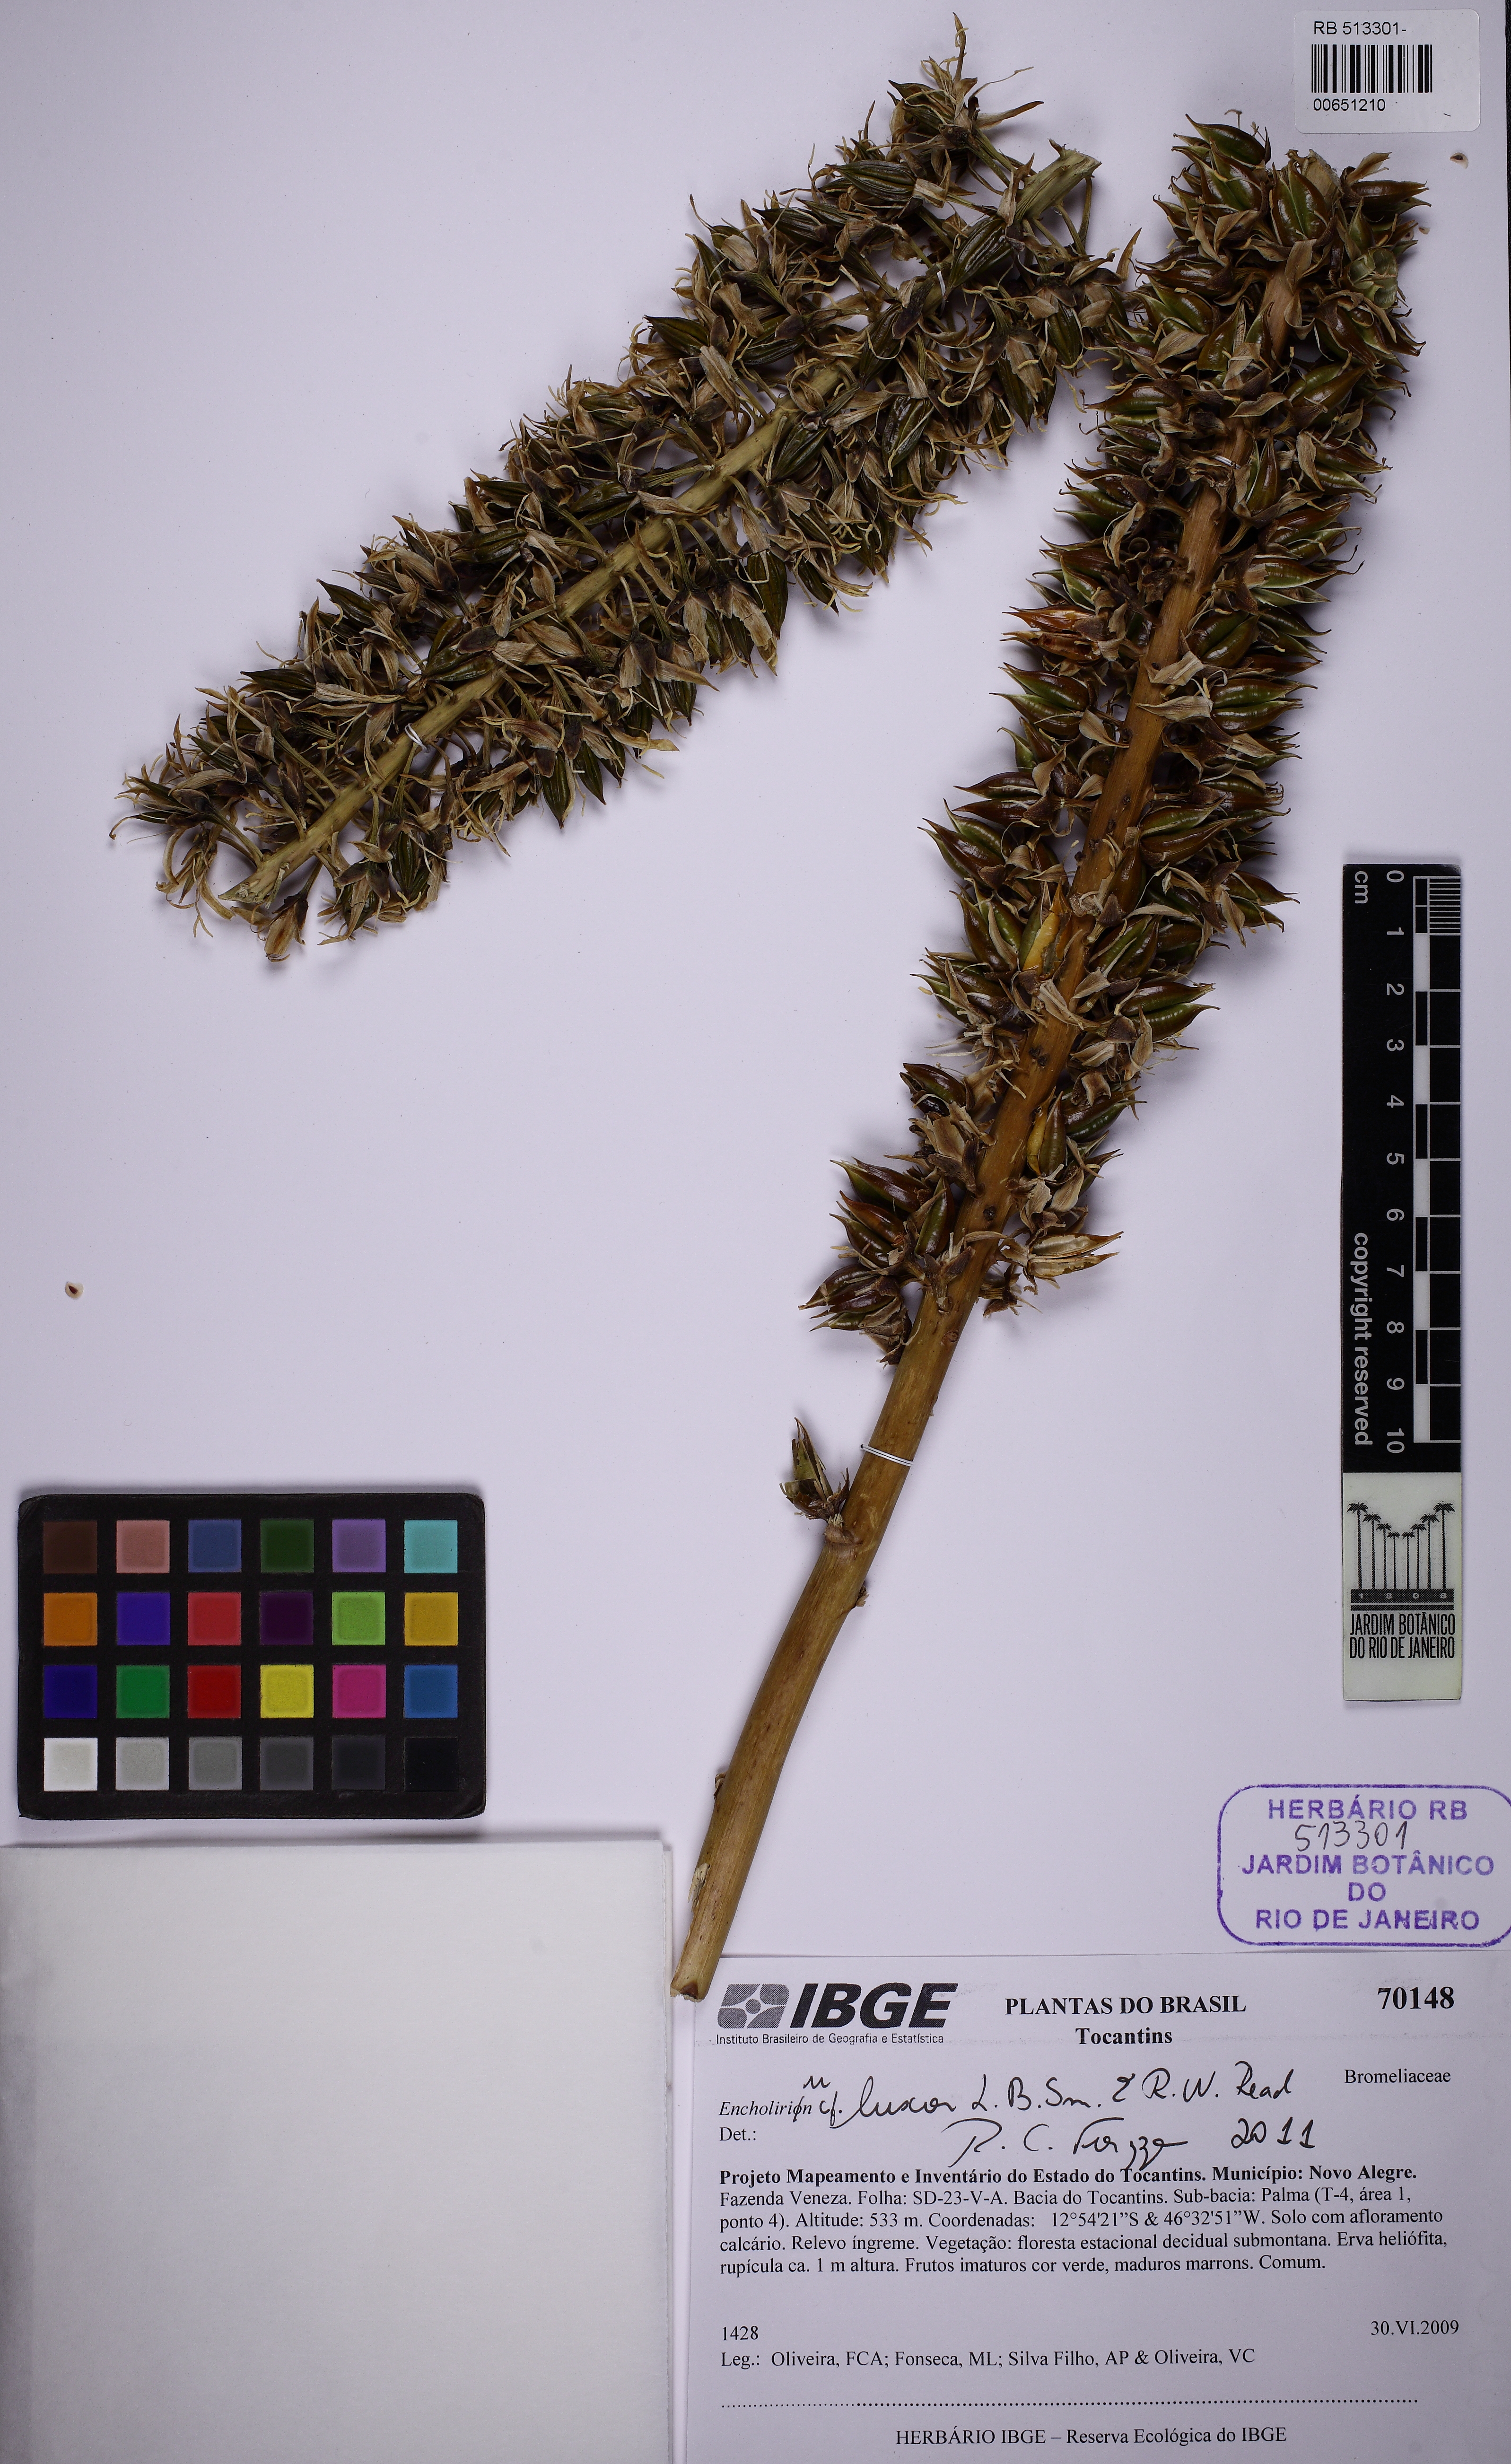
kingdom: Plantae
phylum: Tracheophyta
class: Liliopsida
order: Poales
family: Bromeliaceae
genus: Encholirium
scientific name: Encholirium luxor
